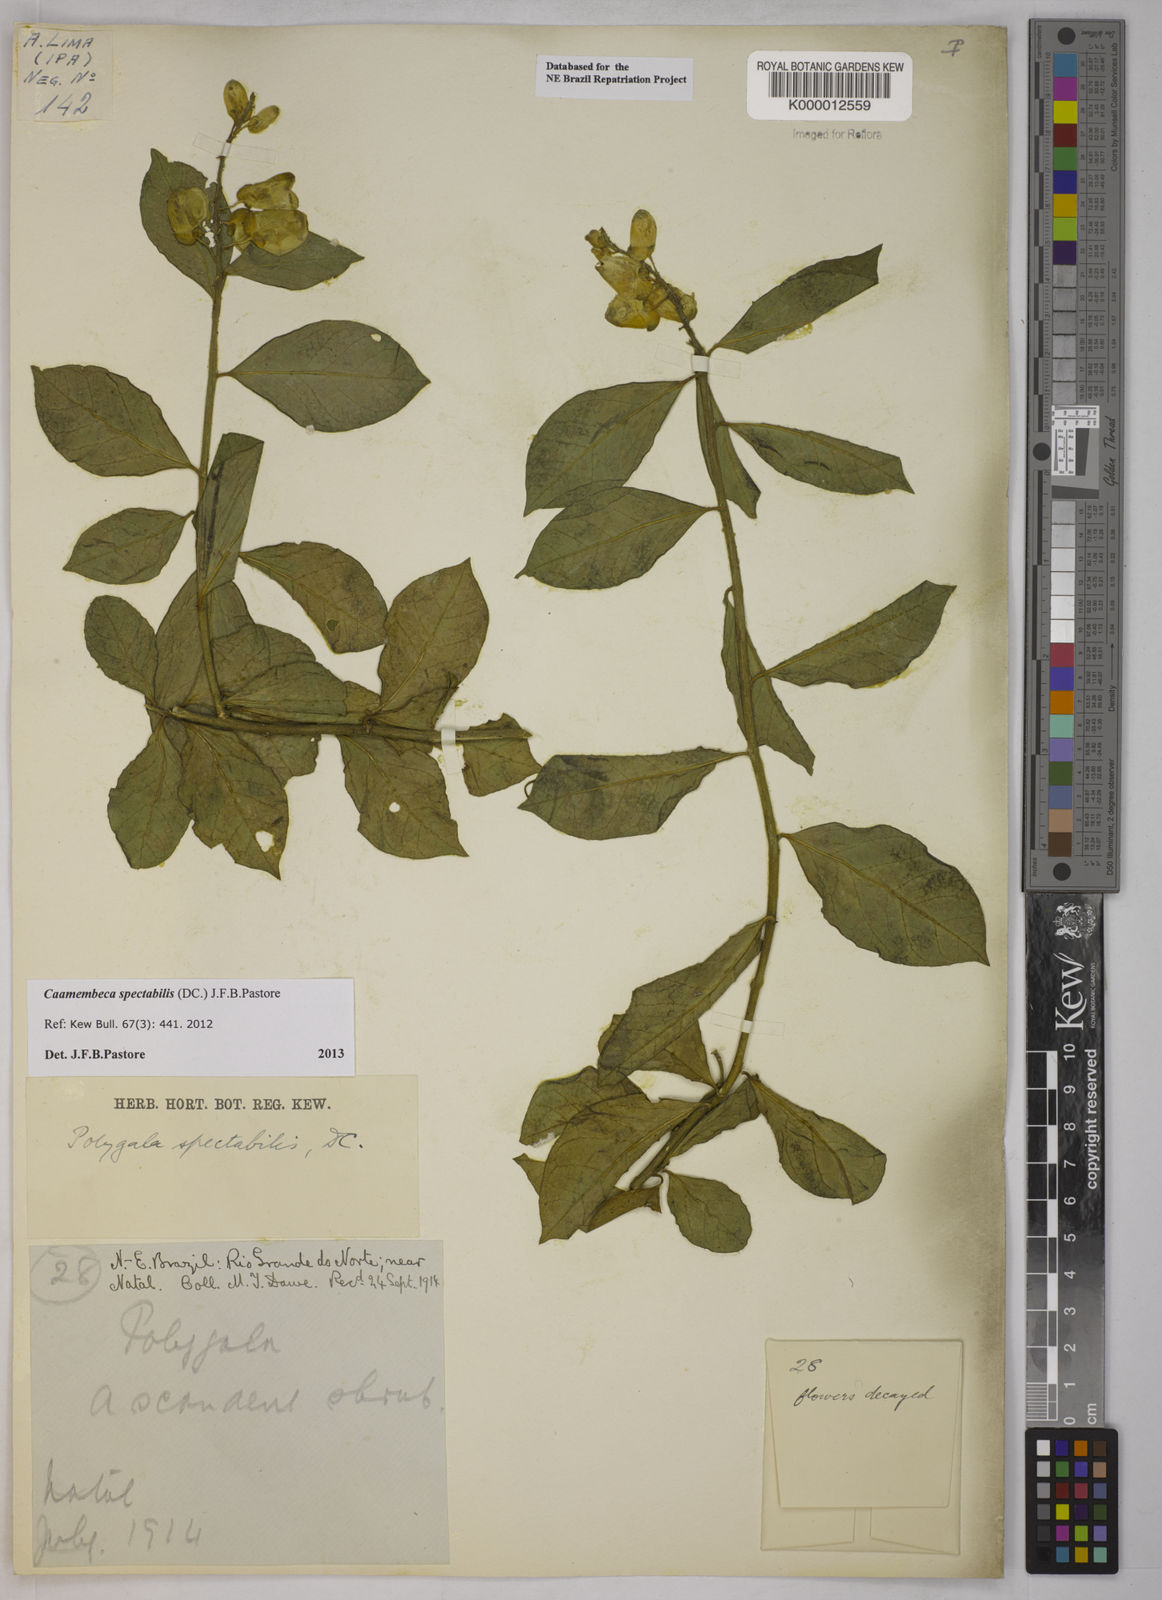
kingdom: Plantae
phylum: Tracheophyta
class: Magnoliopsida
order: Fabales
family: Polygalaceae
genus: Caamembeca
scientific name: Caamembeca spectabilis
